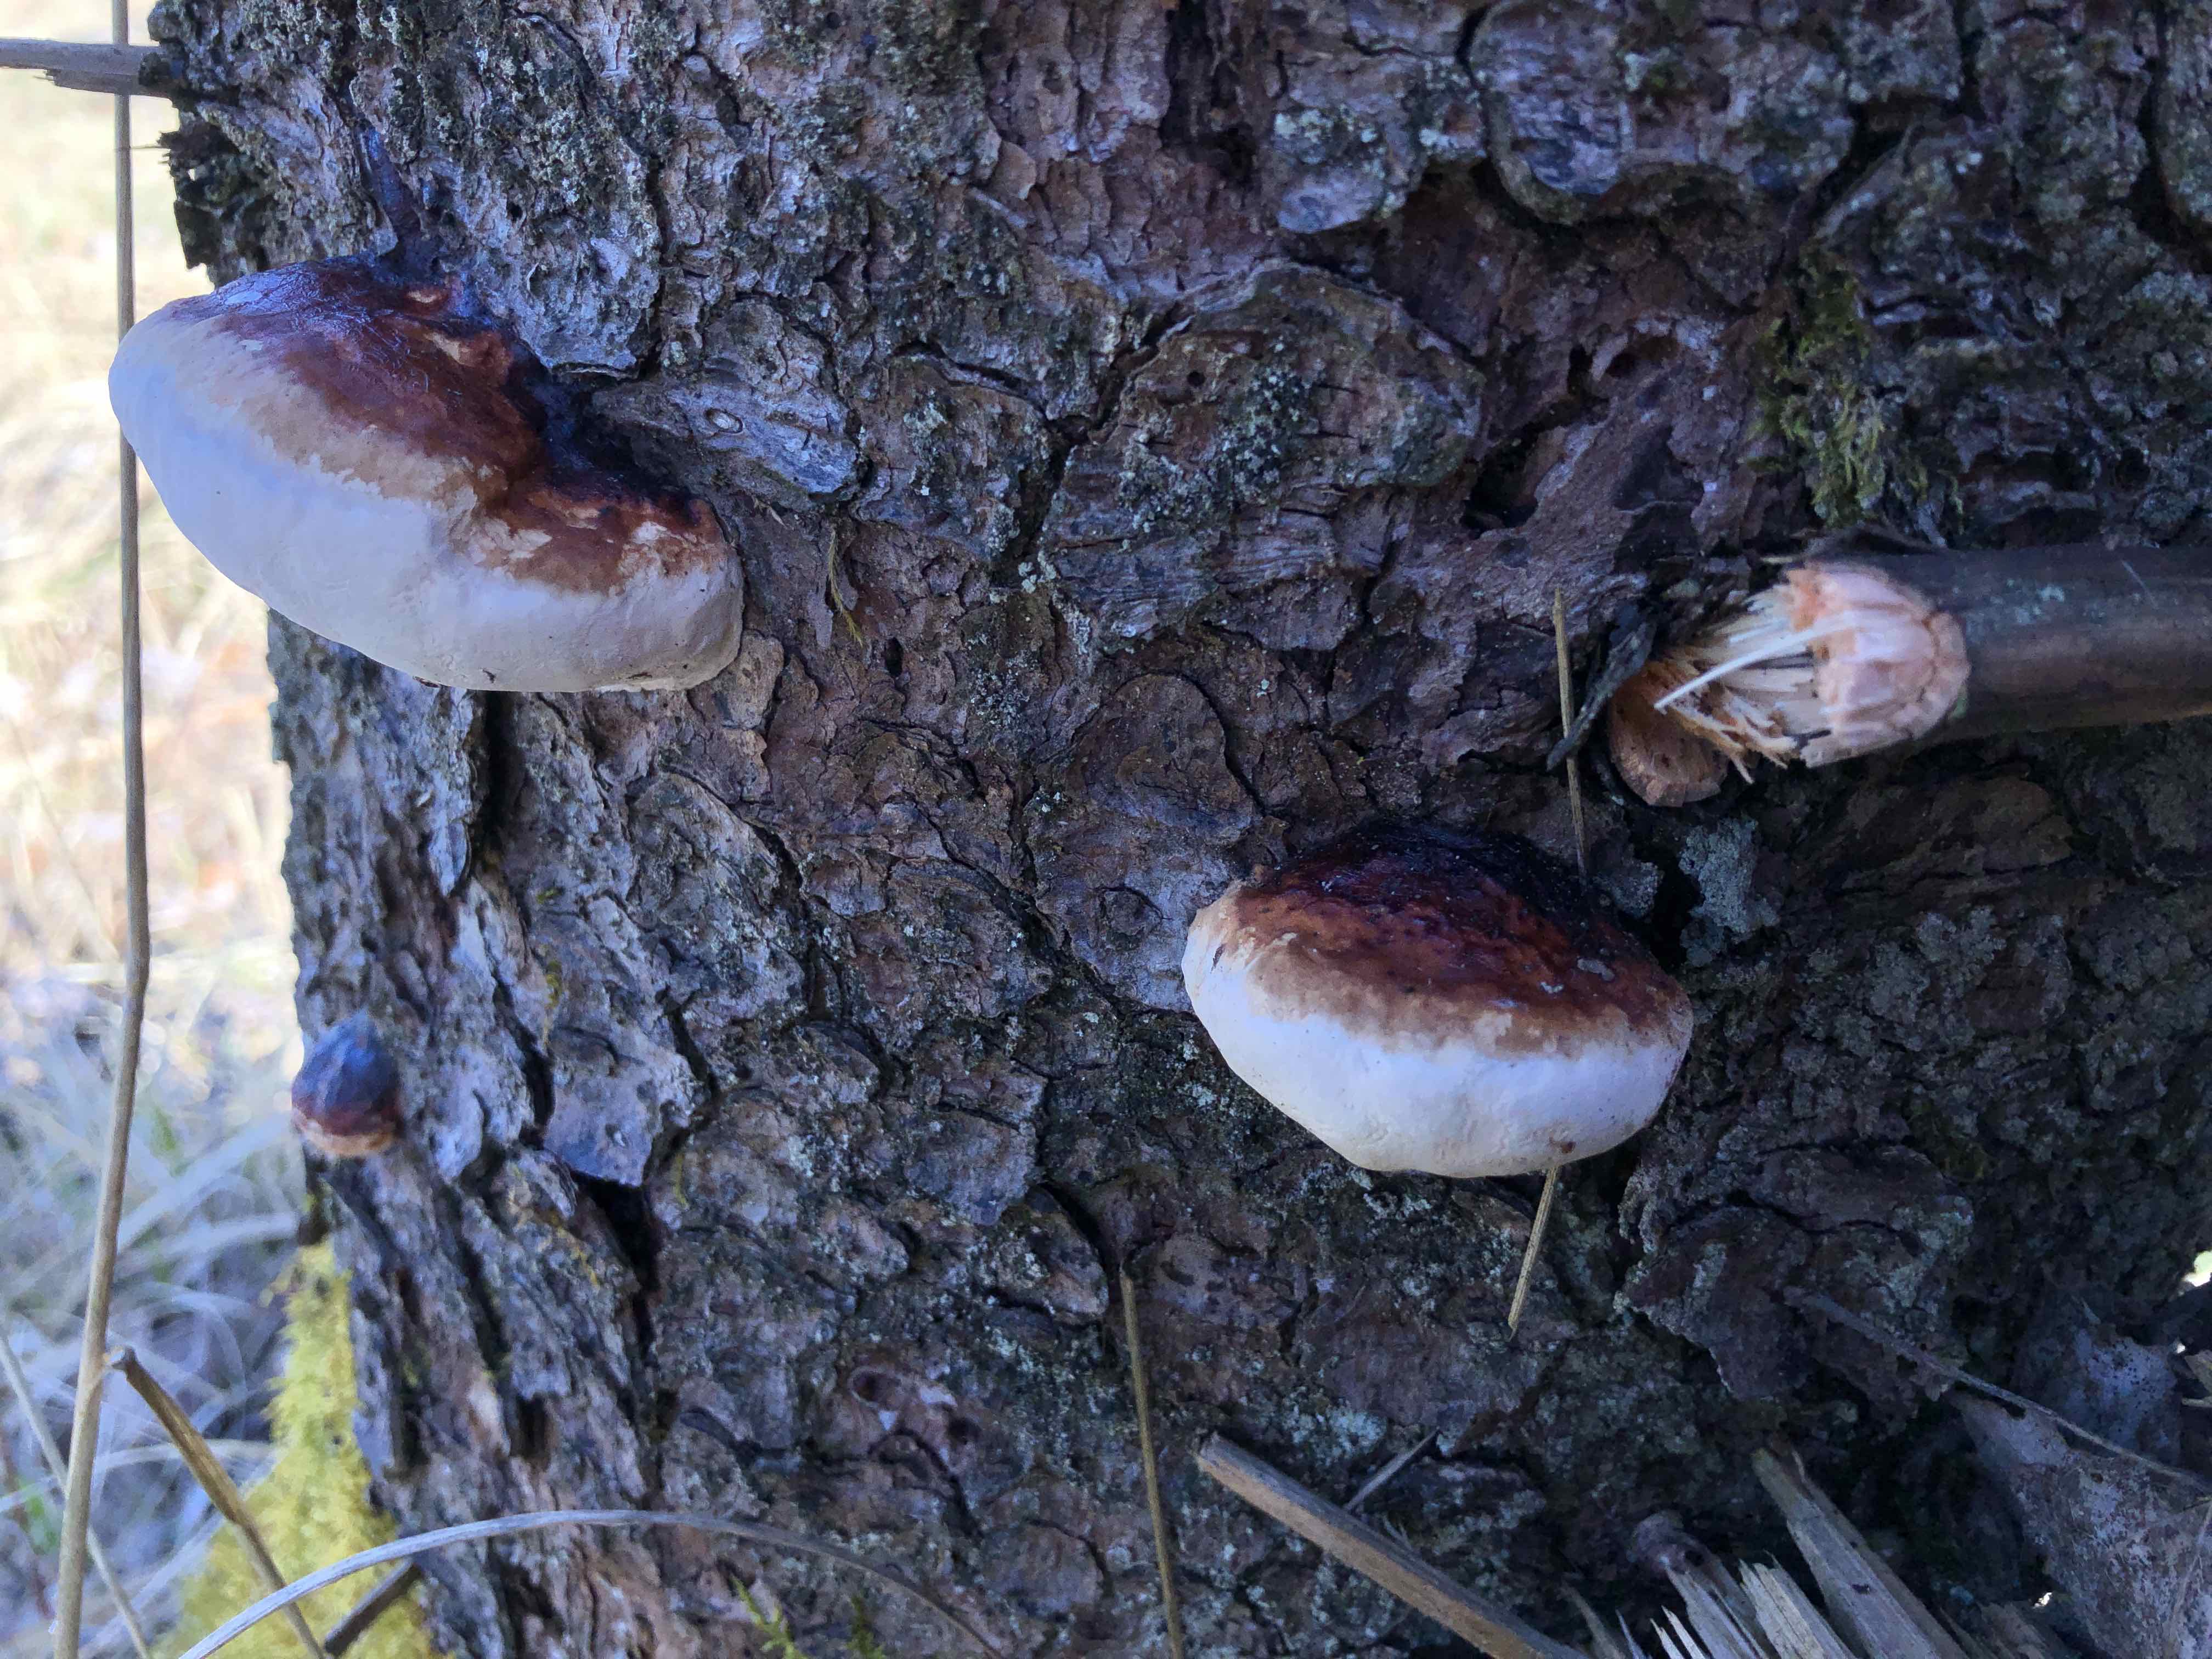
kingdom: Fungi
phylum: Basidiomycota
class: Agaricomycetes
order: Polyporales
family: Fomitopsidaceae
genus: Fomitopsis
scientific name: Fomitopsis pinicola
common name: randbæltet hovporesvamp
